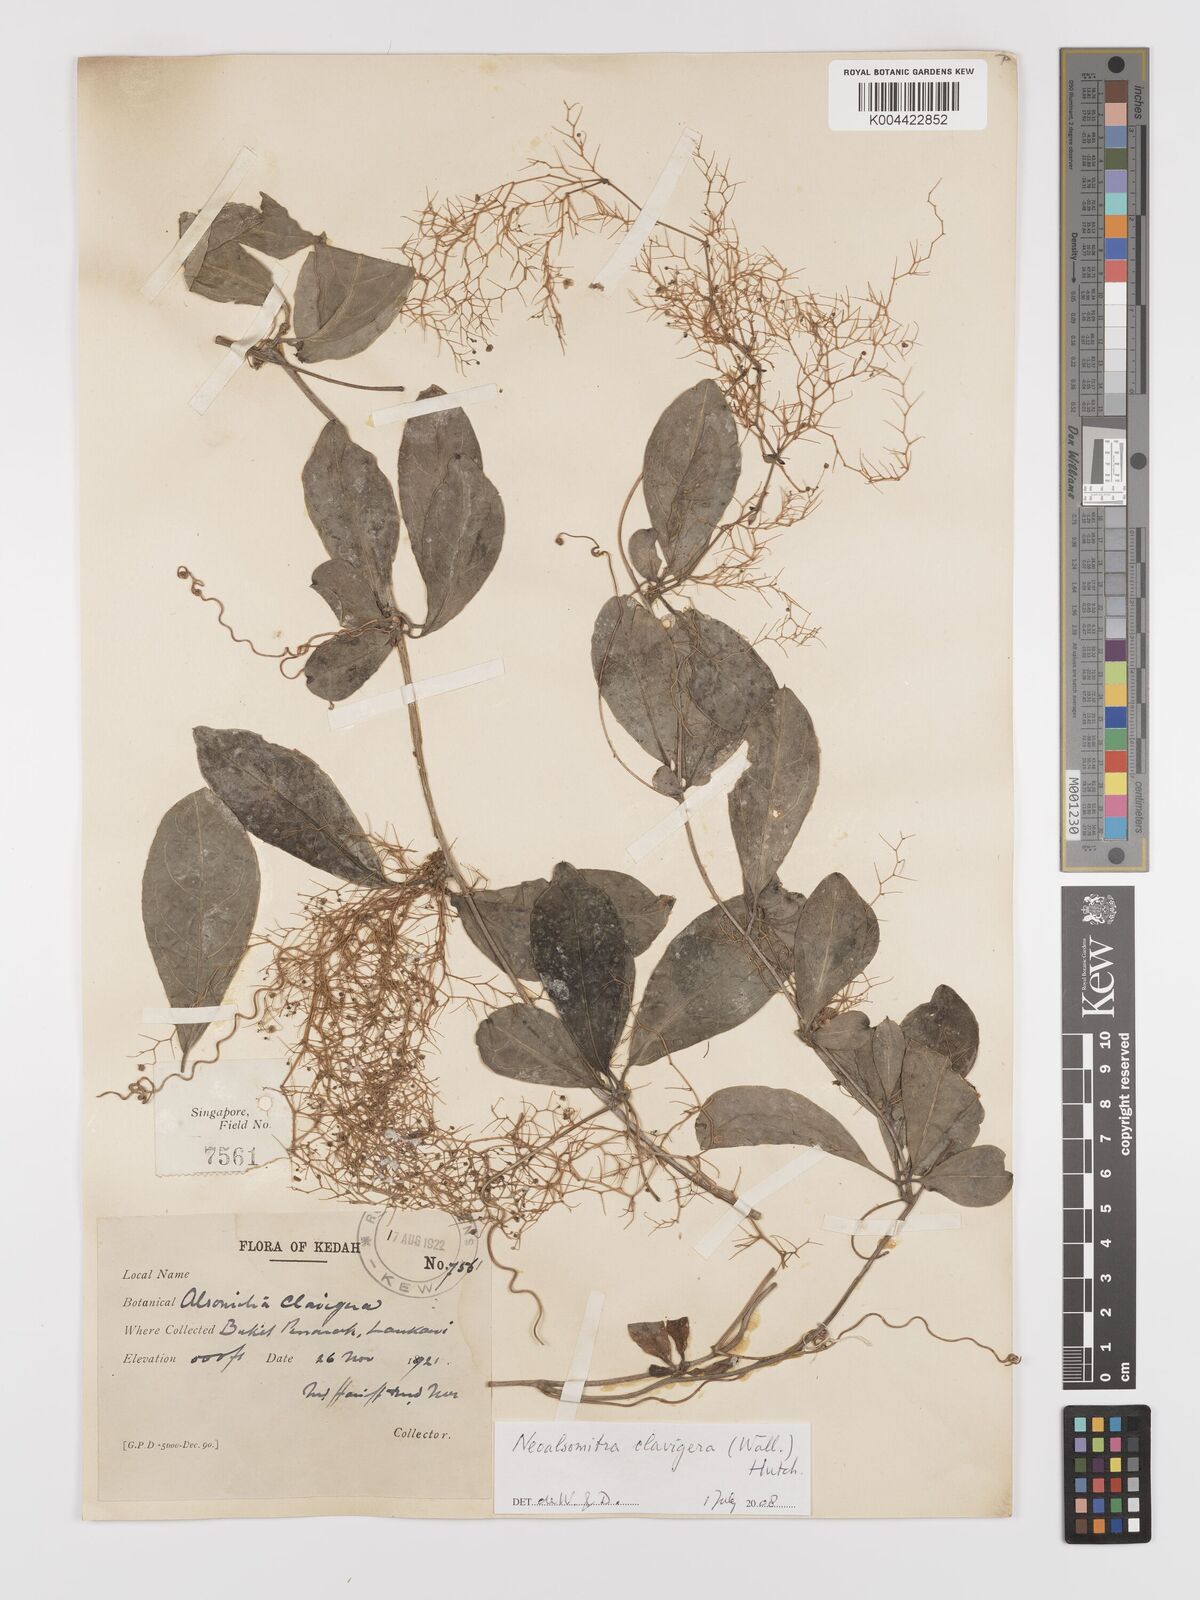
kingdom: Plantae
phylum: Tracheophyta
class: Magnoliopsida
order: Cucurbitales
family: Cucurbitaceae
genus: Neoalsomitra
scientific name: Neoalsomitra clavigera
